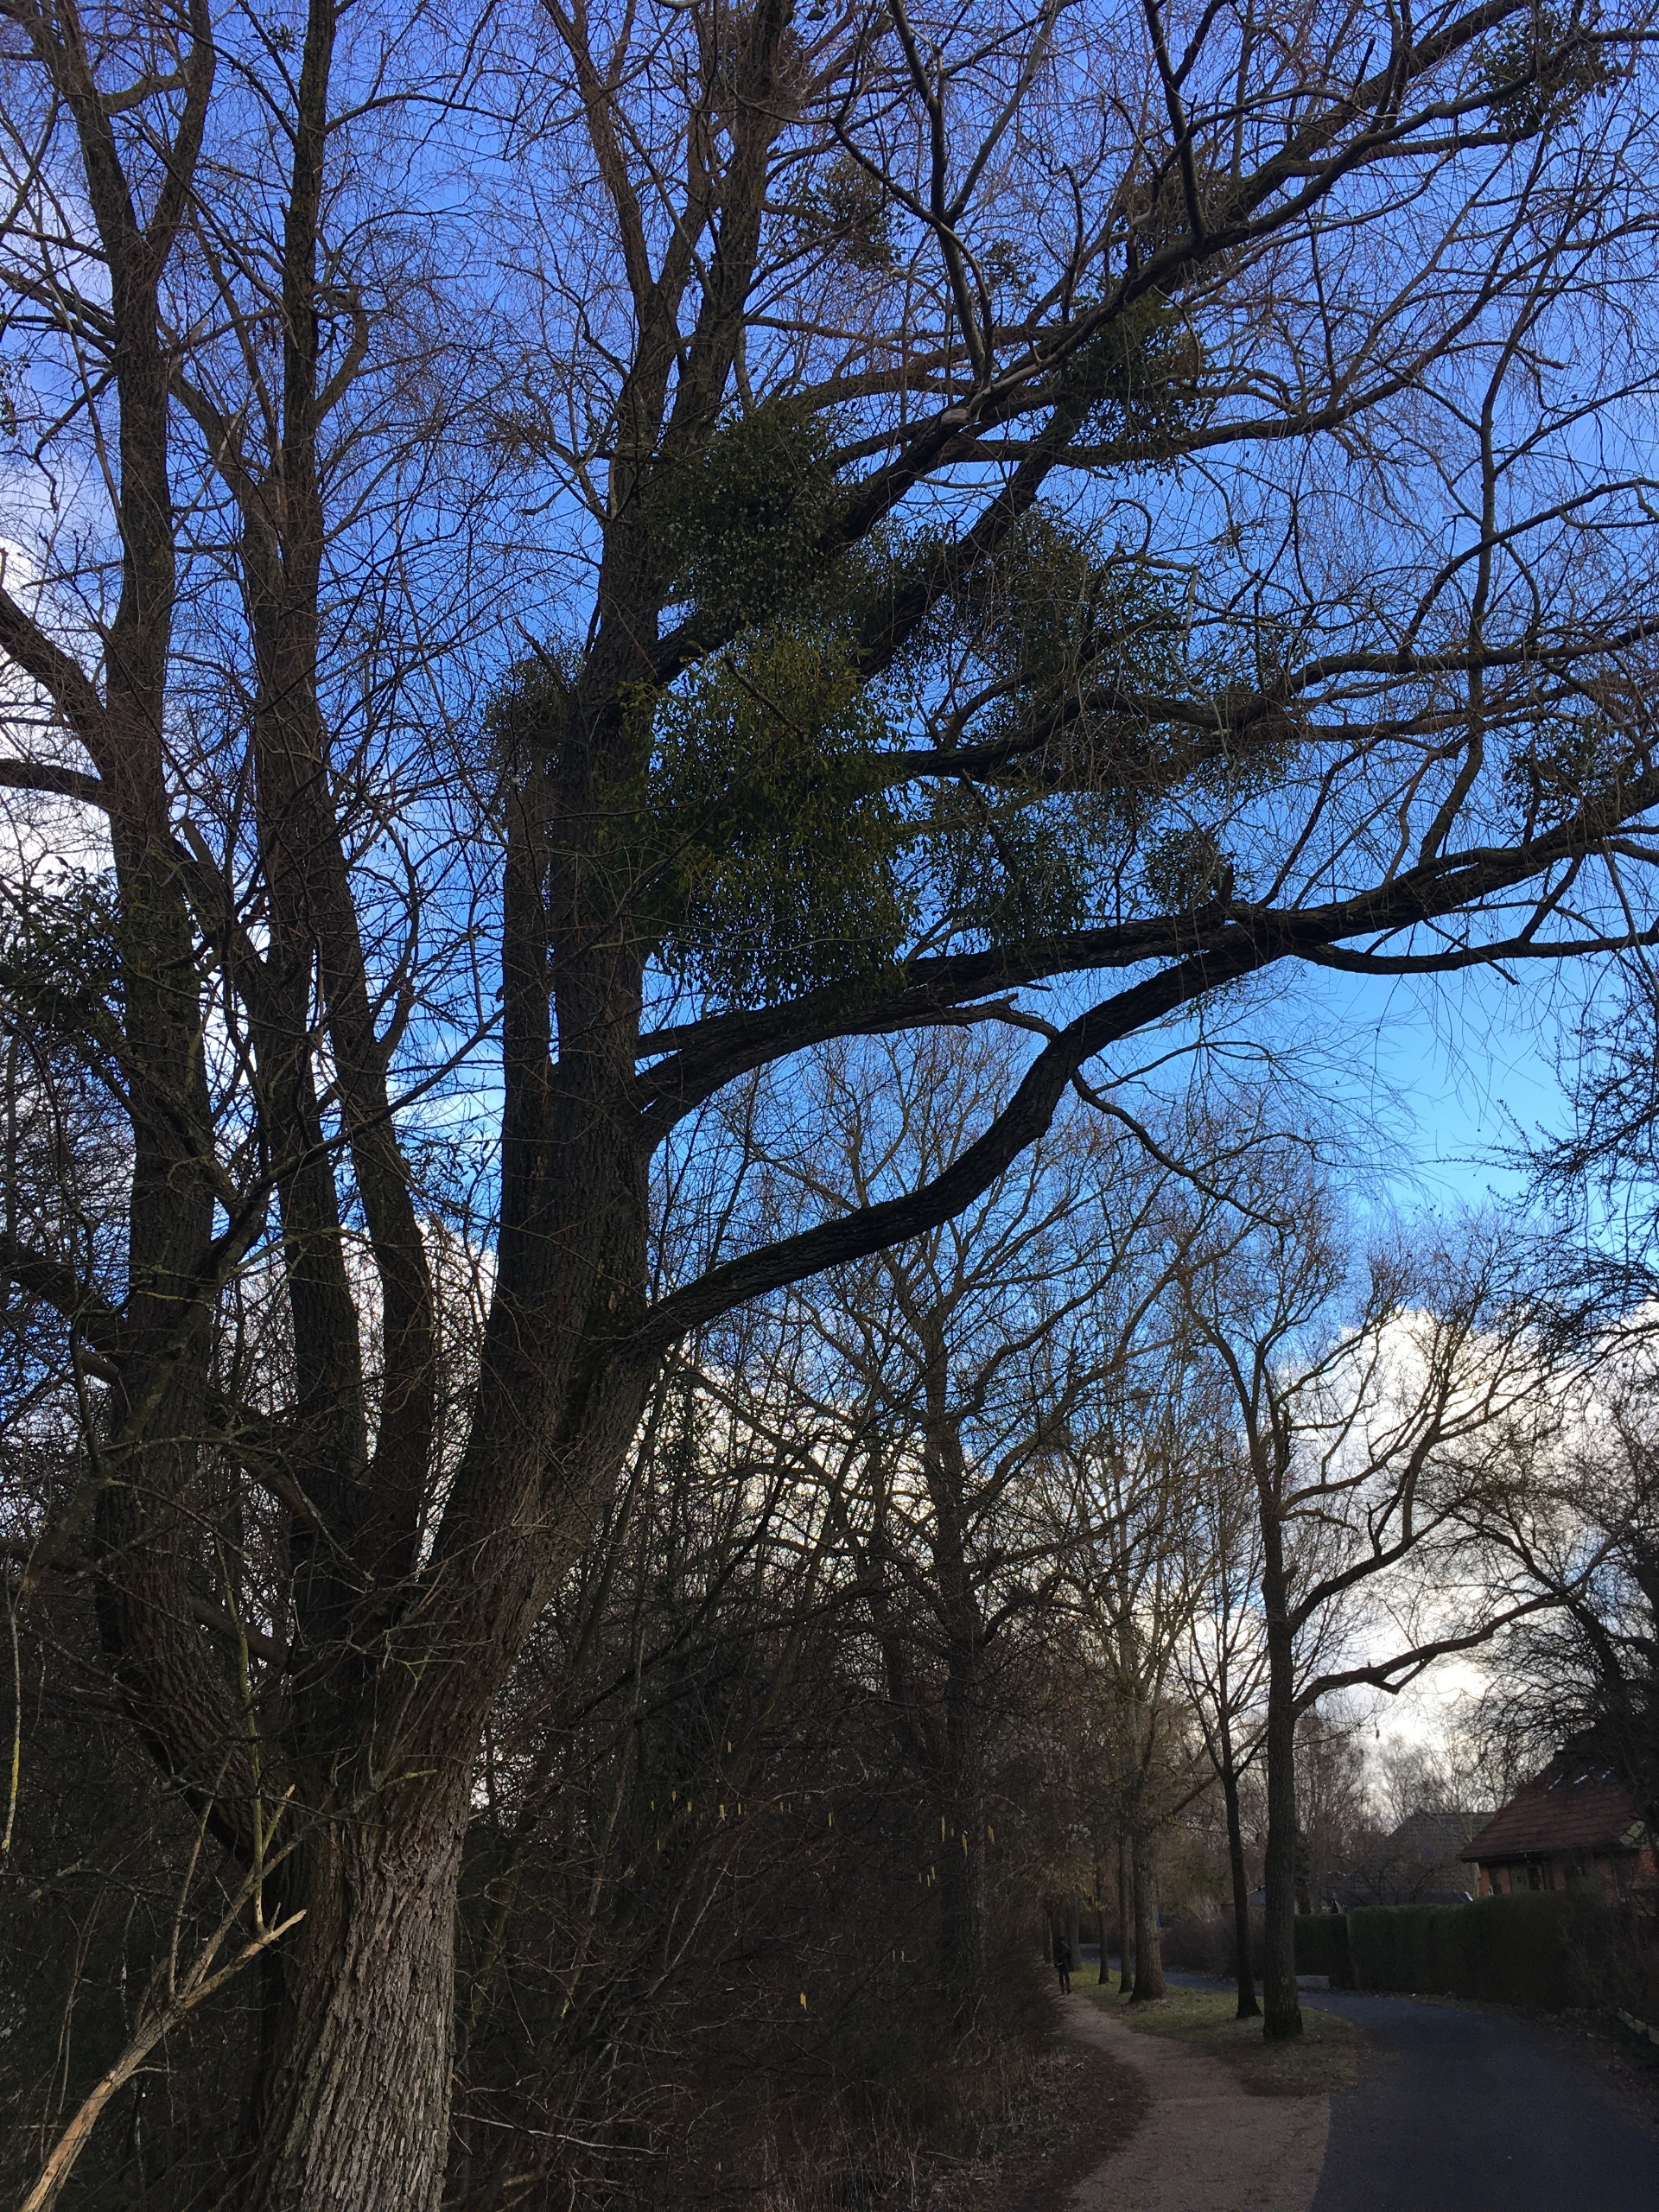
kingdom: Plantae
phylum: Tracheophyta
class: Magnoliopsida
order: Santalales
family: Viscaceae
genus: Viscum
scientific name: Viscum album
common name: Mistelten
